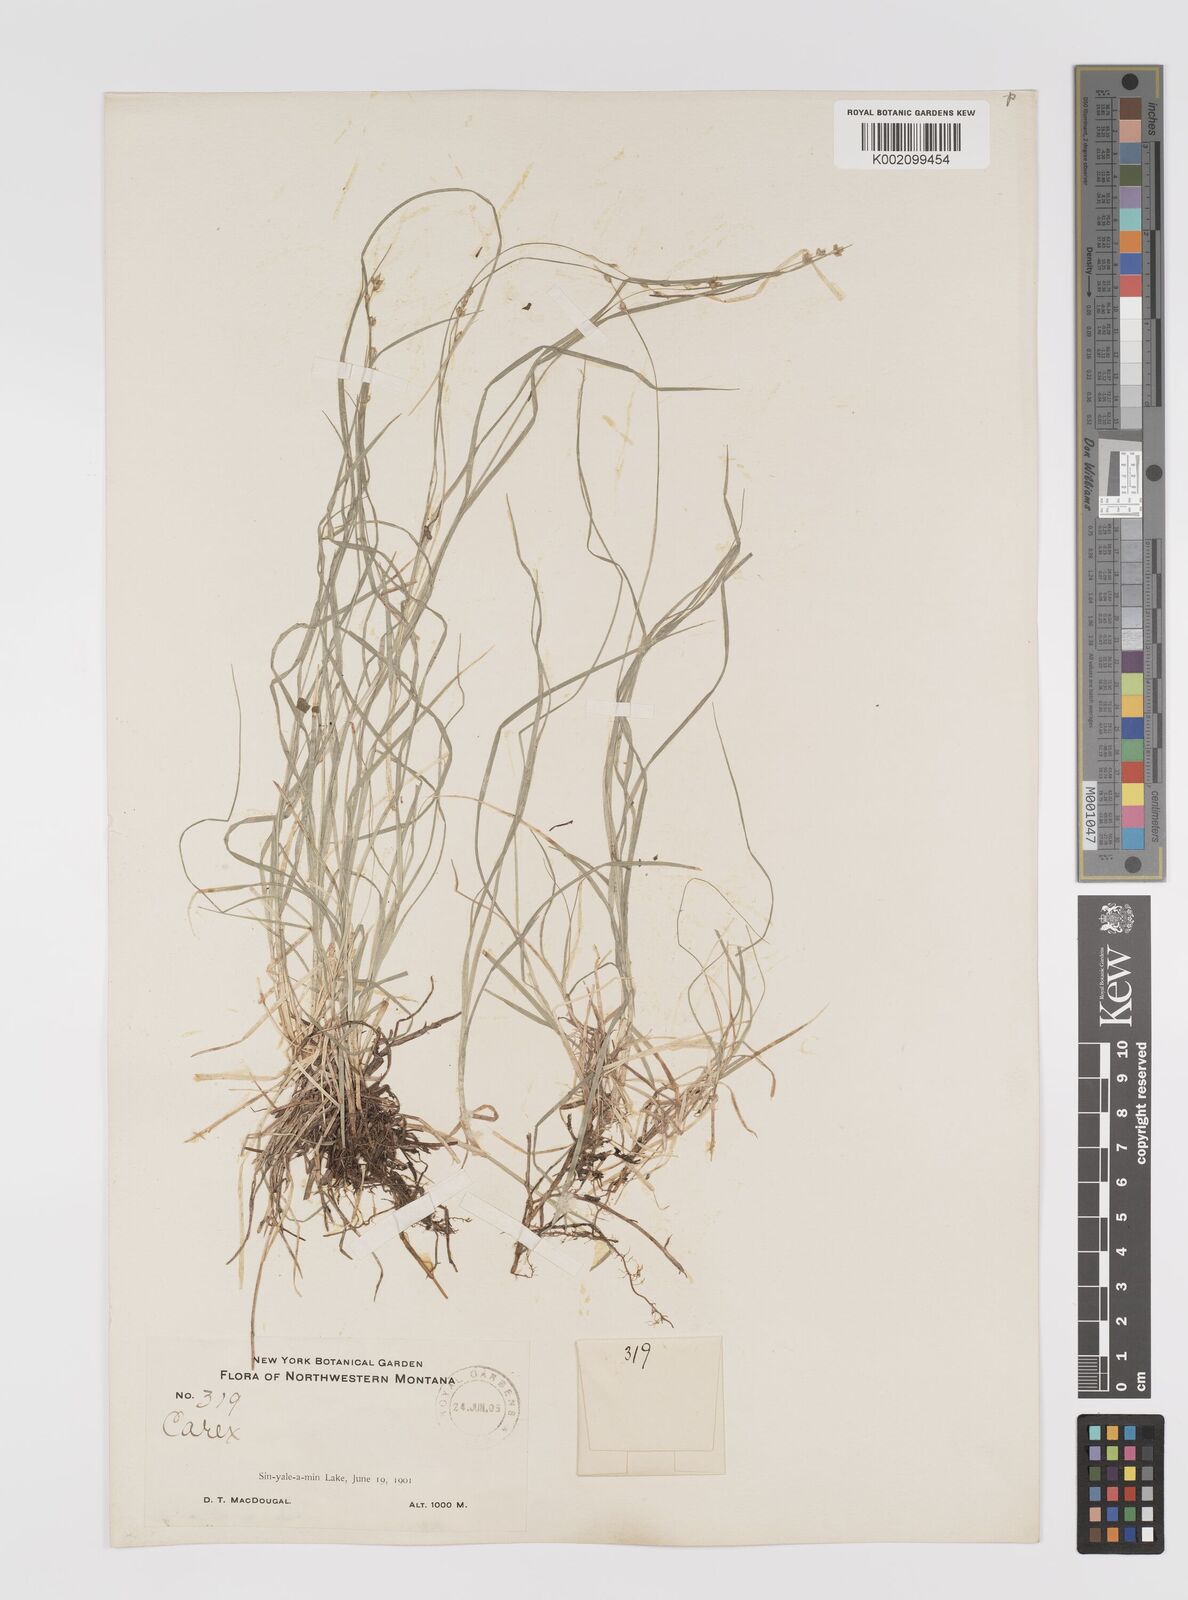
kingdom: Plantae
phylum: Tracheophyta
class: Liliopsida
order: Poales
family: Cyperaceae
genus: Carex
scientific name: Carex trisperma
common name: Three-seeded sedge
